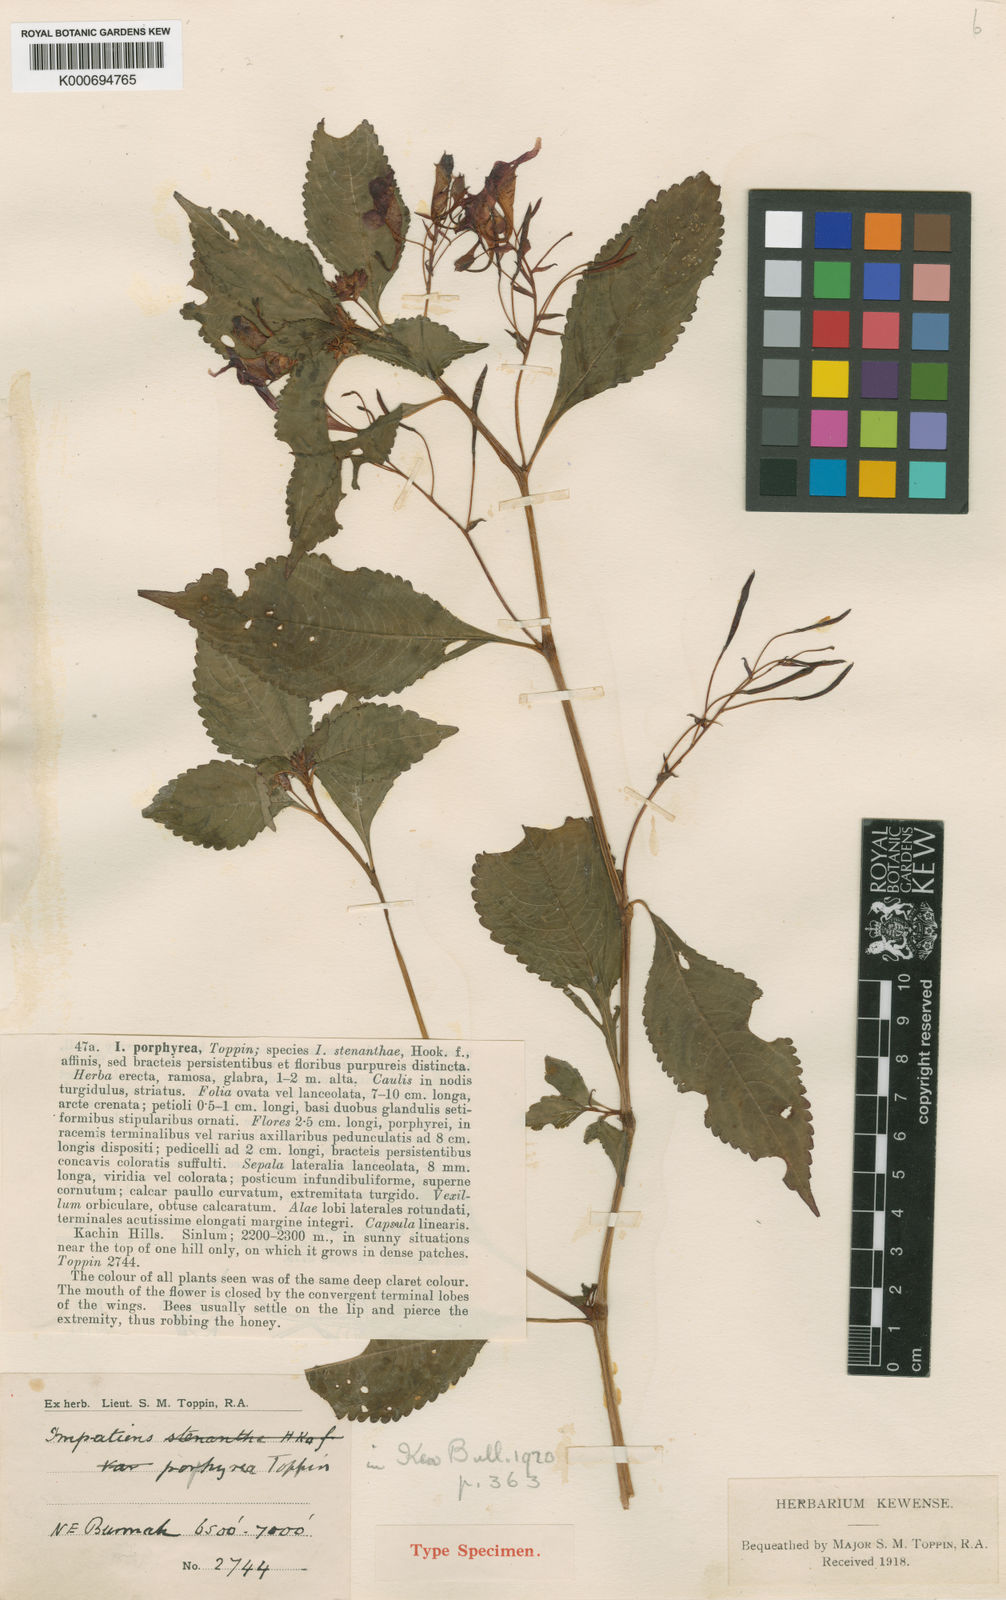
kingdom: Plantae
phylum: Tracheophyta
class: Magnoliopsida
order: Ericales
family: Balsaminaceae
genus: Impatiens
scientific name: Impatiens siculifera
